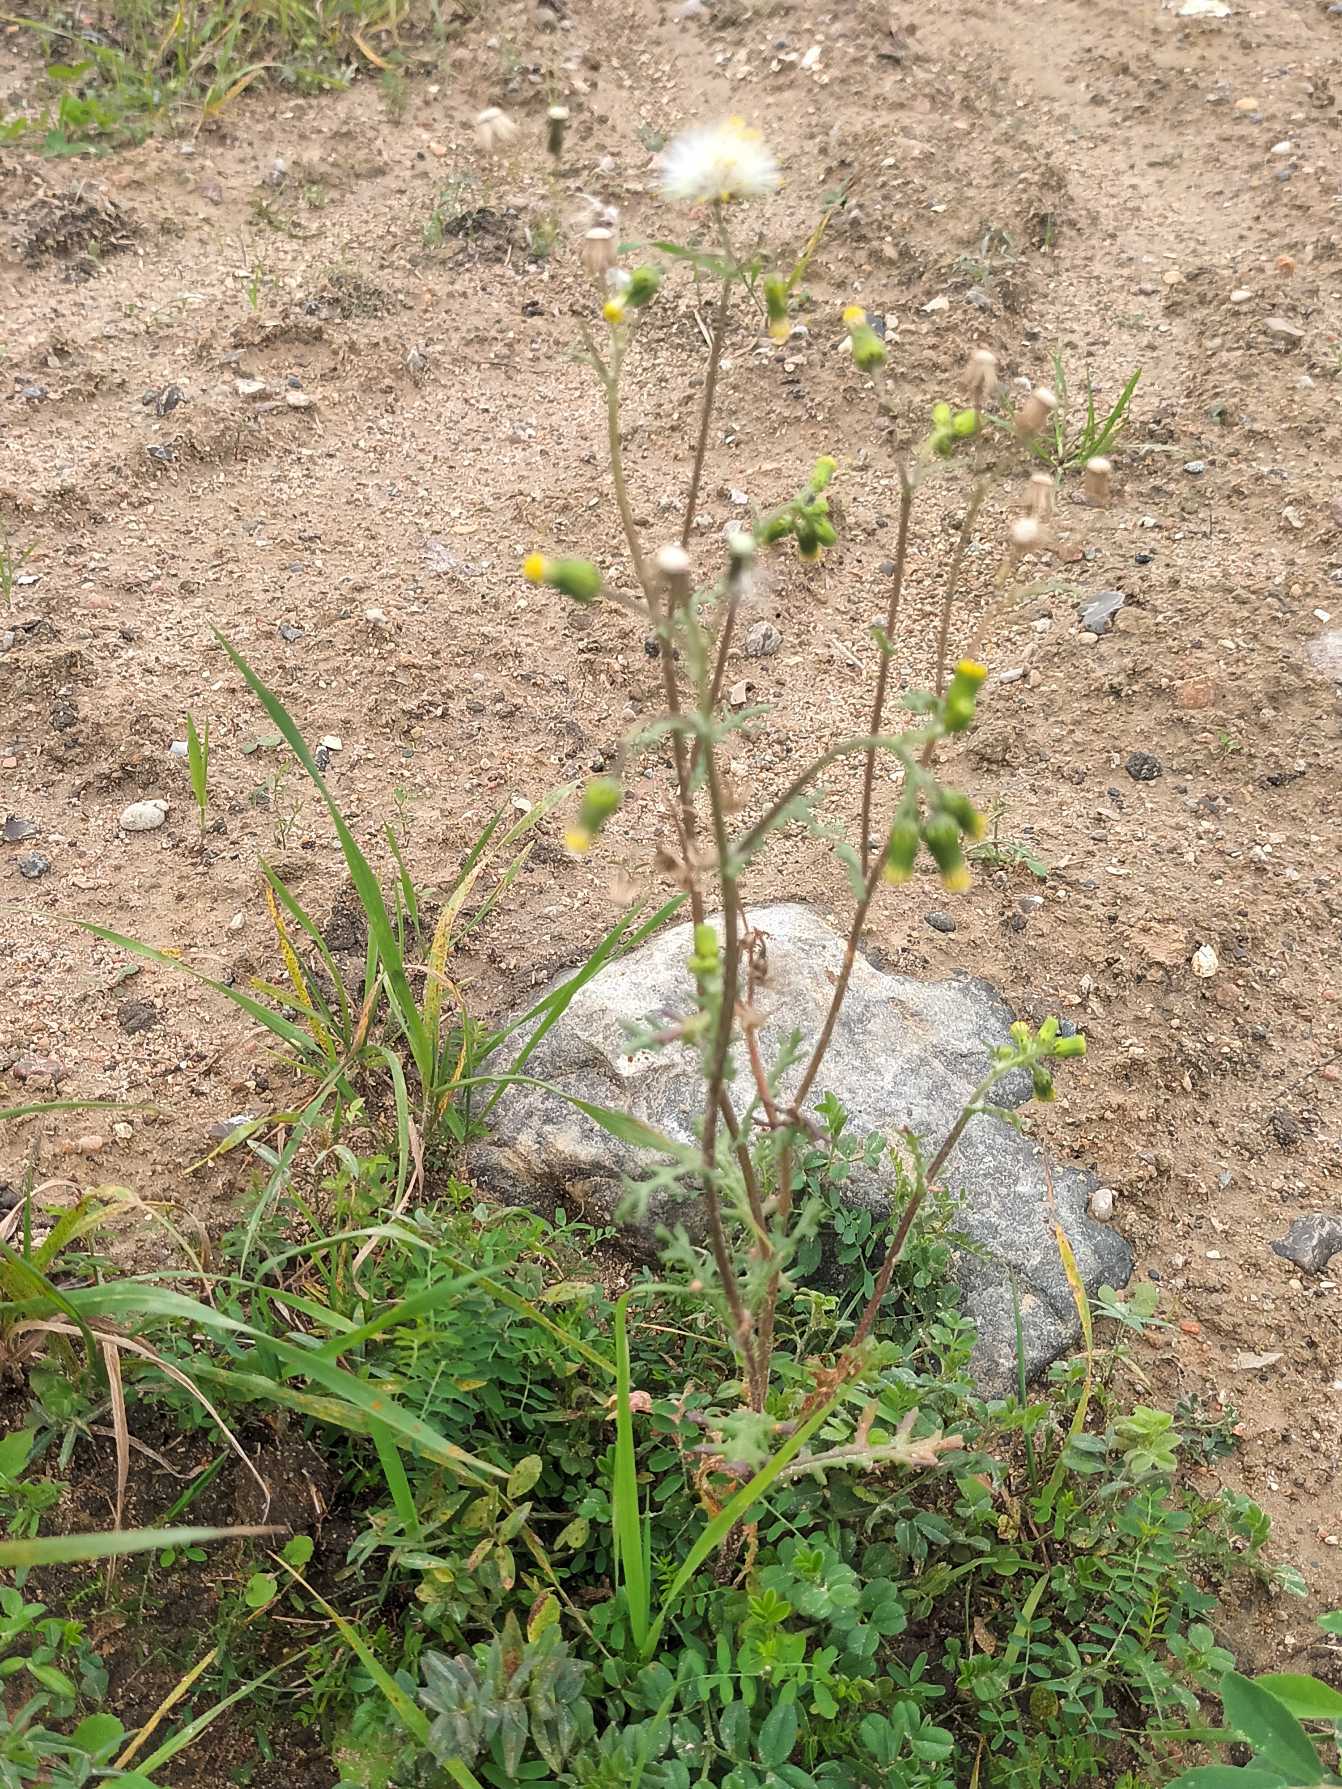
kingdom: Plantae
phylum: Tracheophyta
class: Magnoliopsida
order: Asterales
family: Asteraceae
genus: Senecio
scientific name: Senecio vulgaris
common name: Almindelig brandbæger
